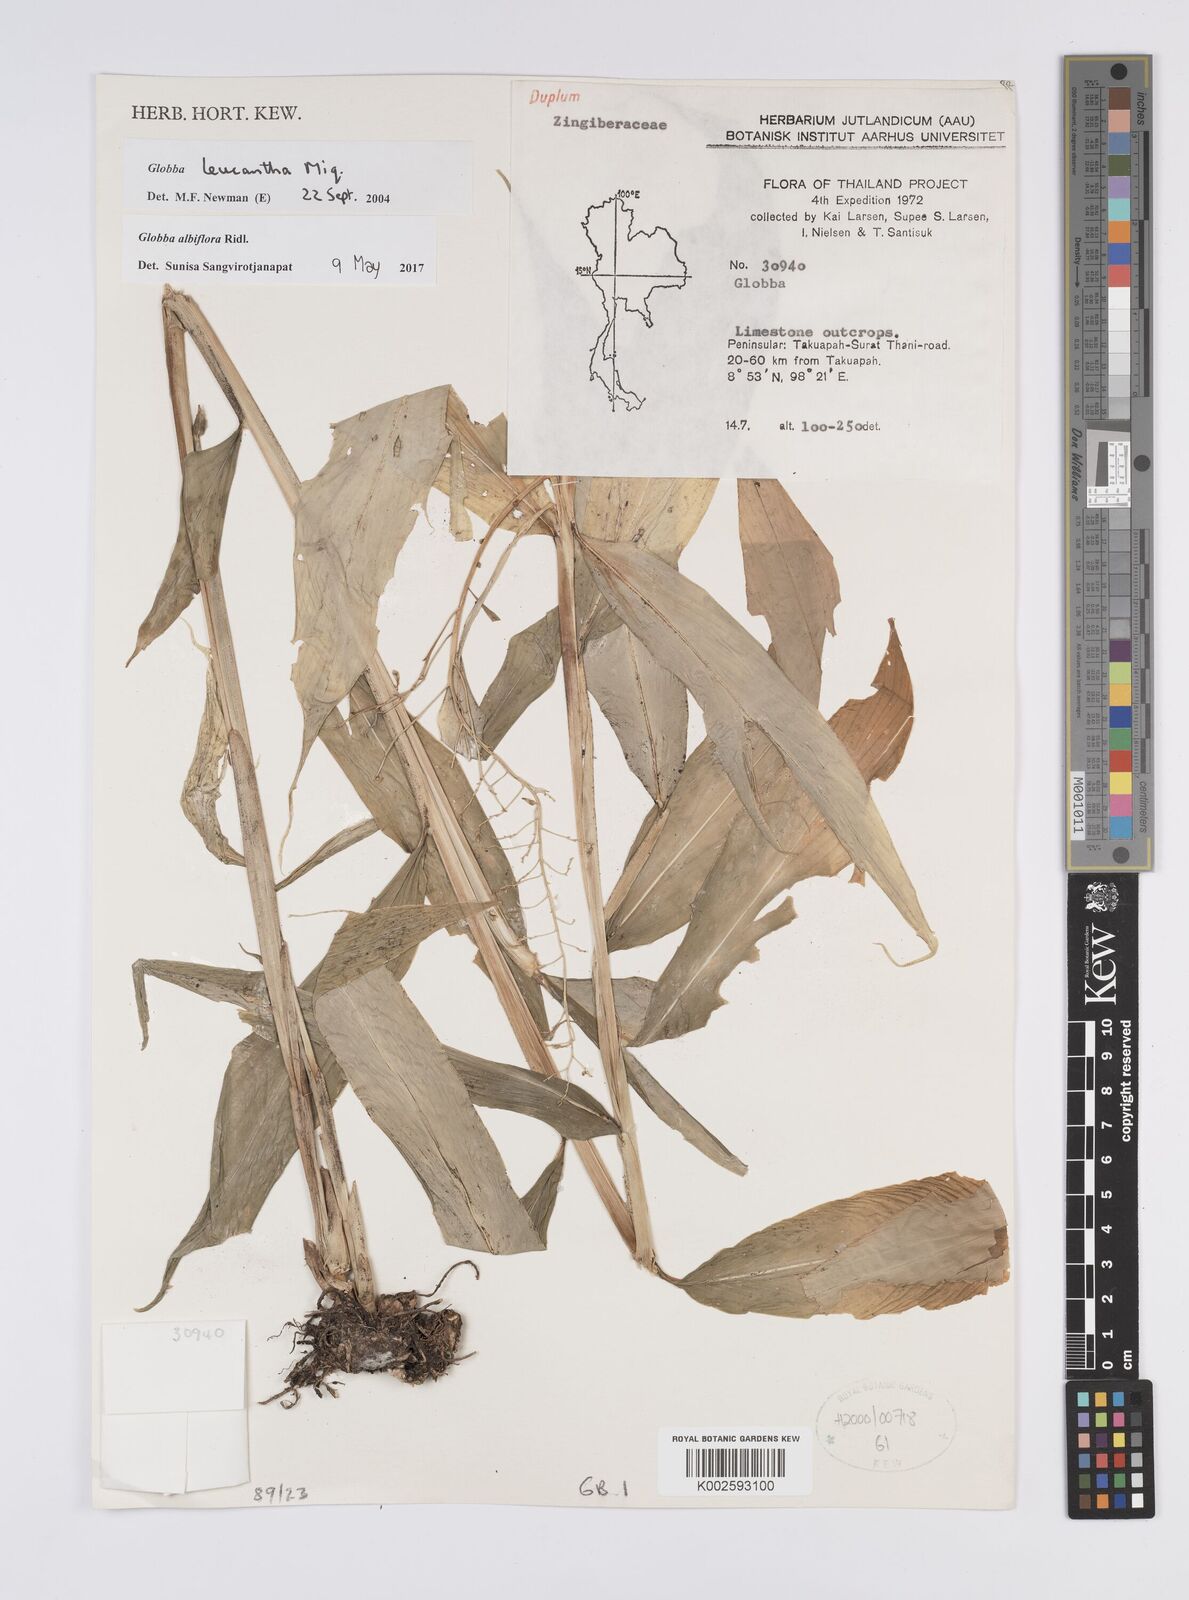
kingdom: Plantae
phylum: Tracheophyta
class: Liliopsida
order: Zingiberales
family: Zingiberaceae
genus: Globba
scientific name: Globba leucantha
